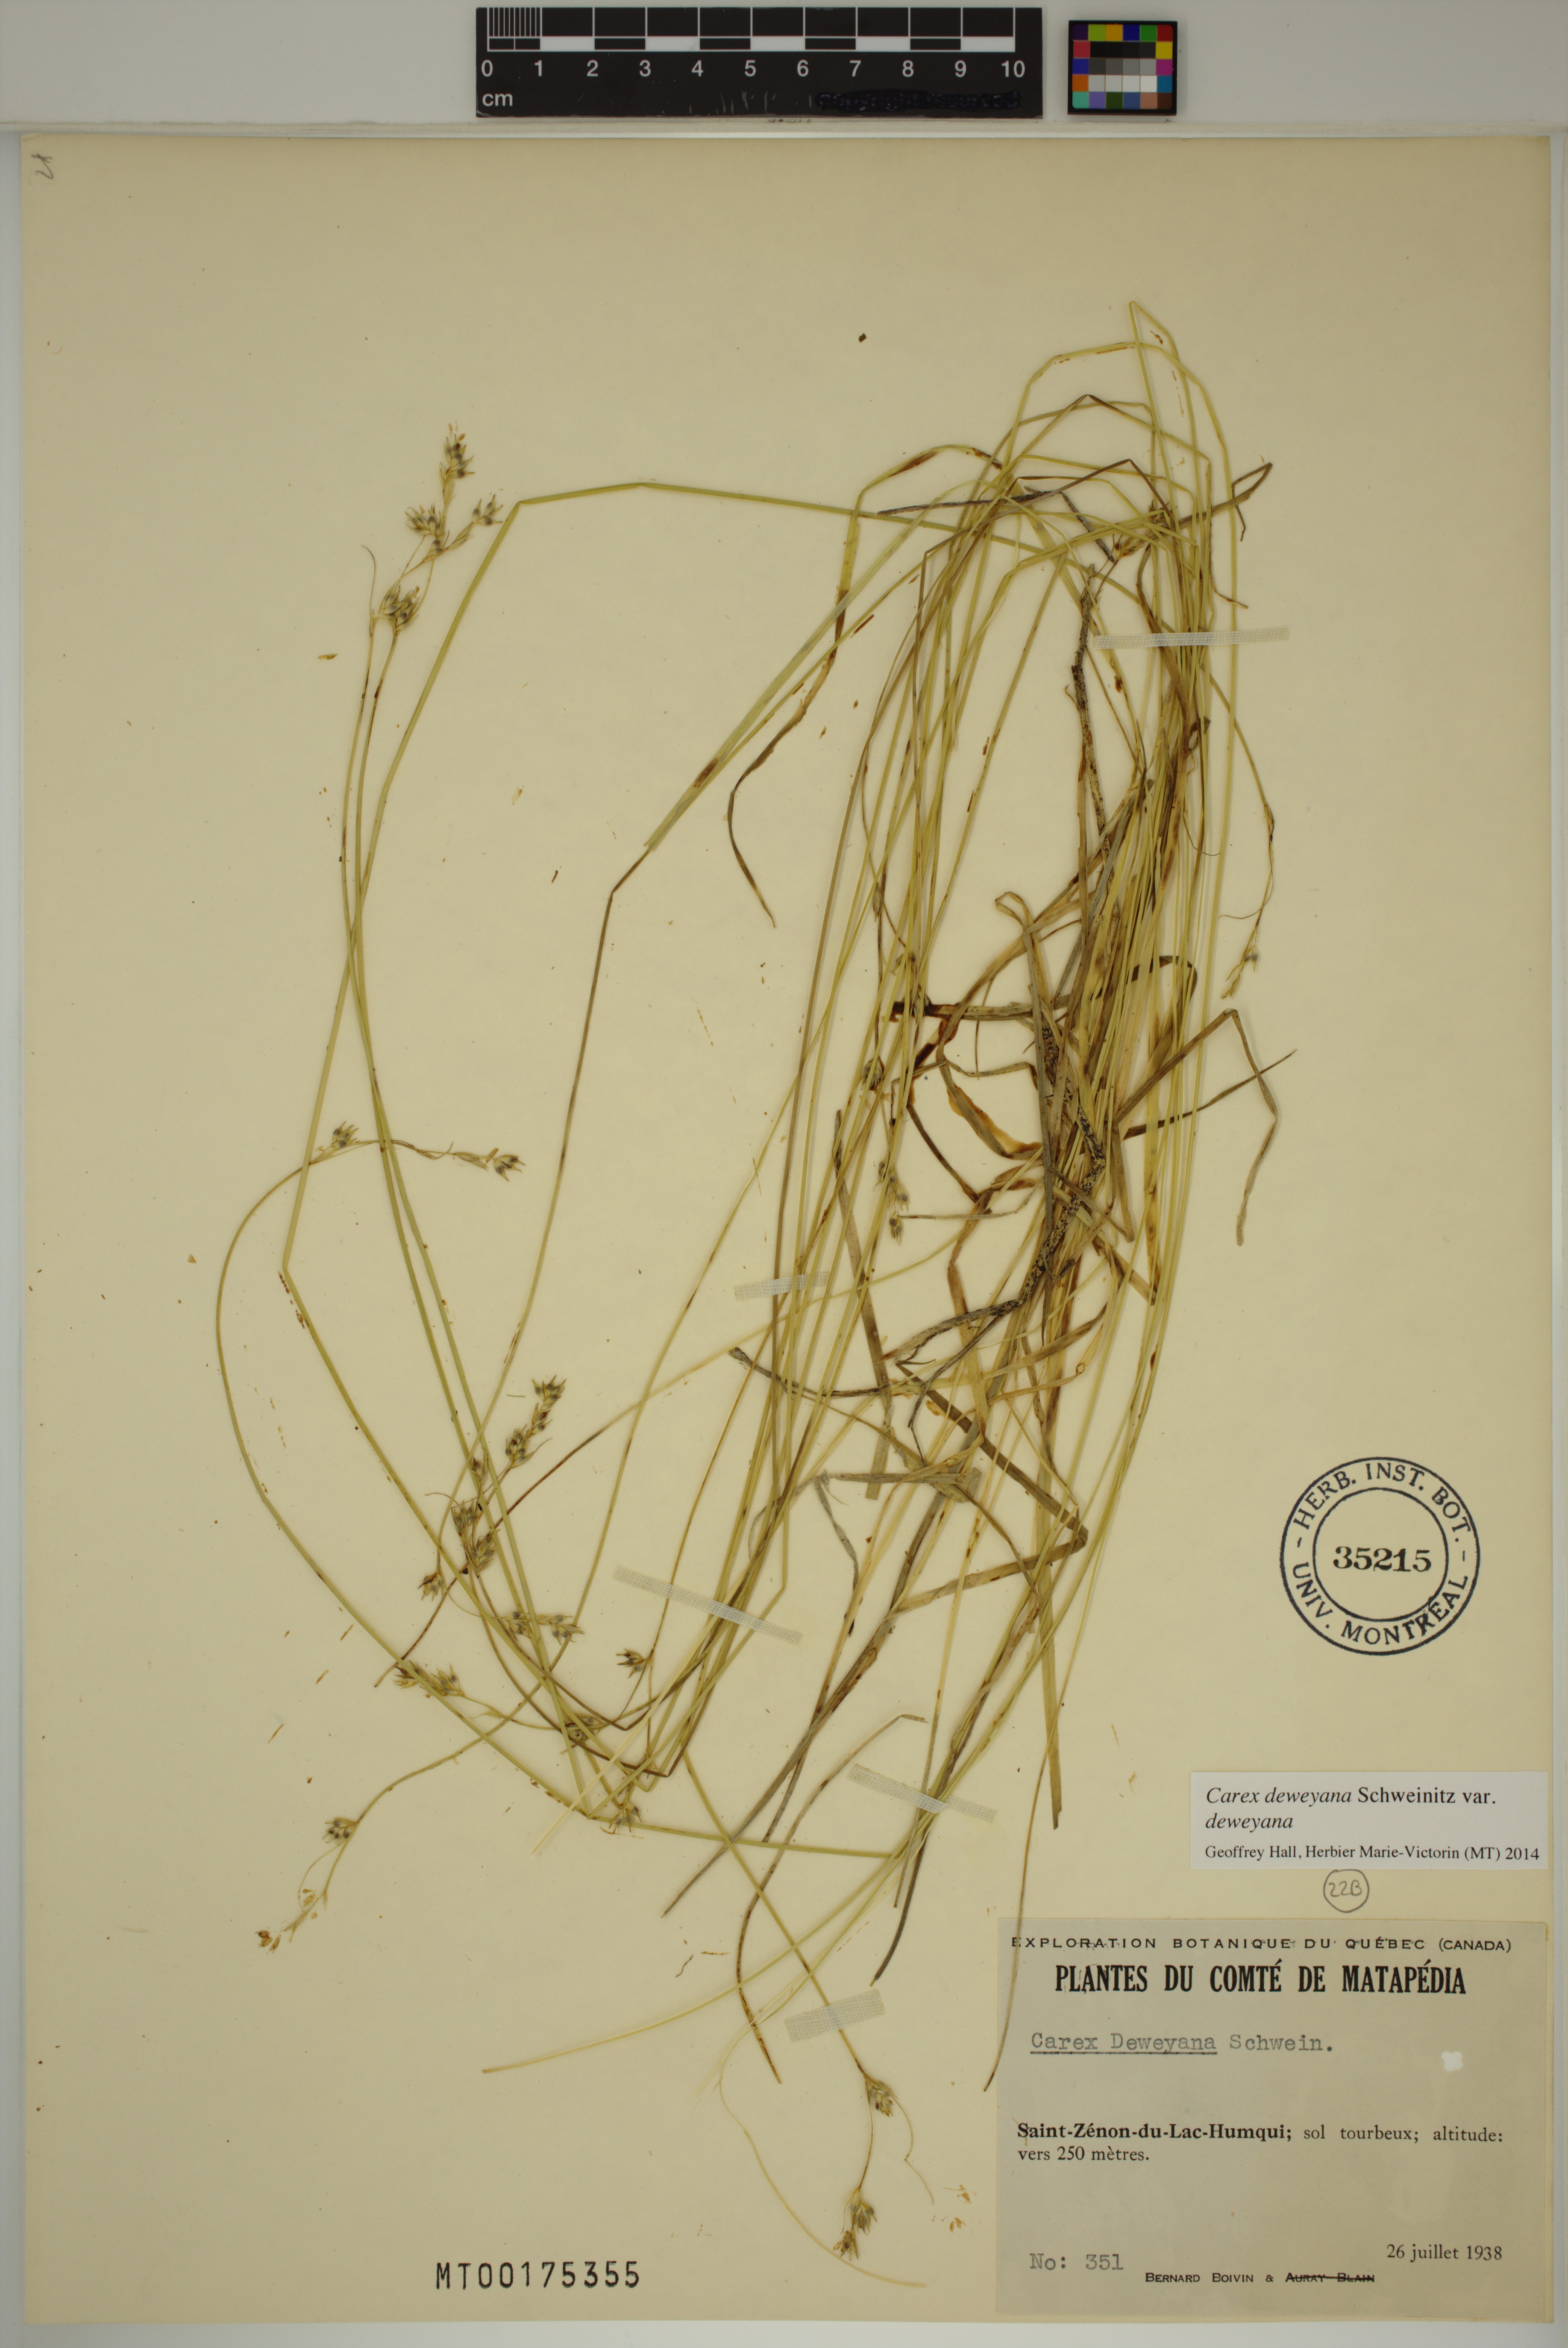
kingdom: Plantae
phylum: Tracheophyta
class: Liliopsida
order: Poales
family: Cyperaceae
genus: Carex
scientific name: Carex deweyana
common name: Dewey's sedge
